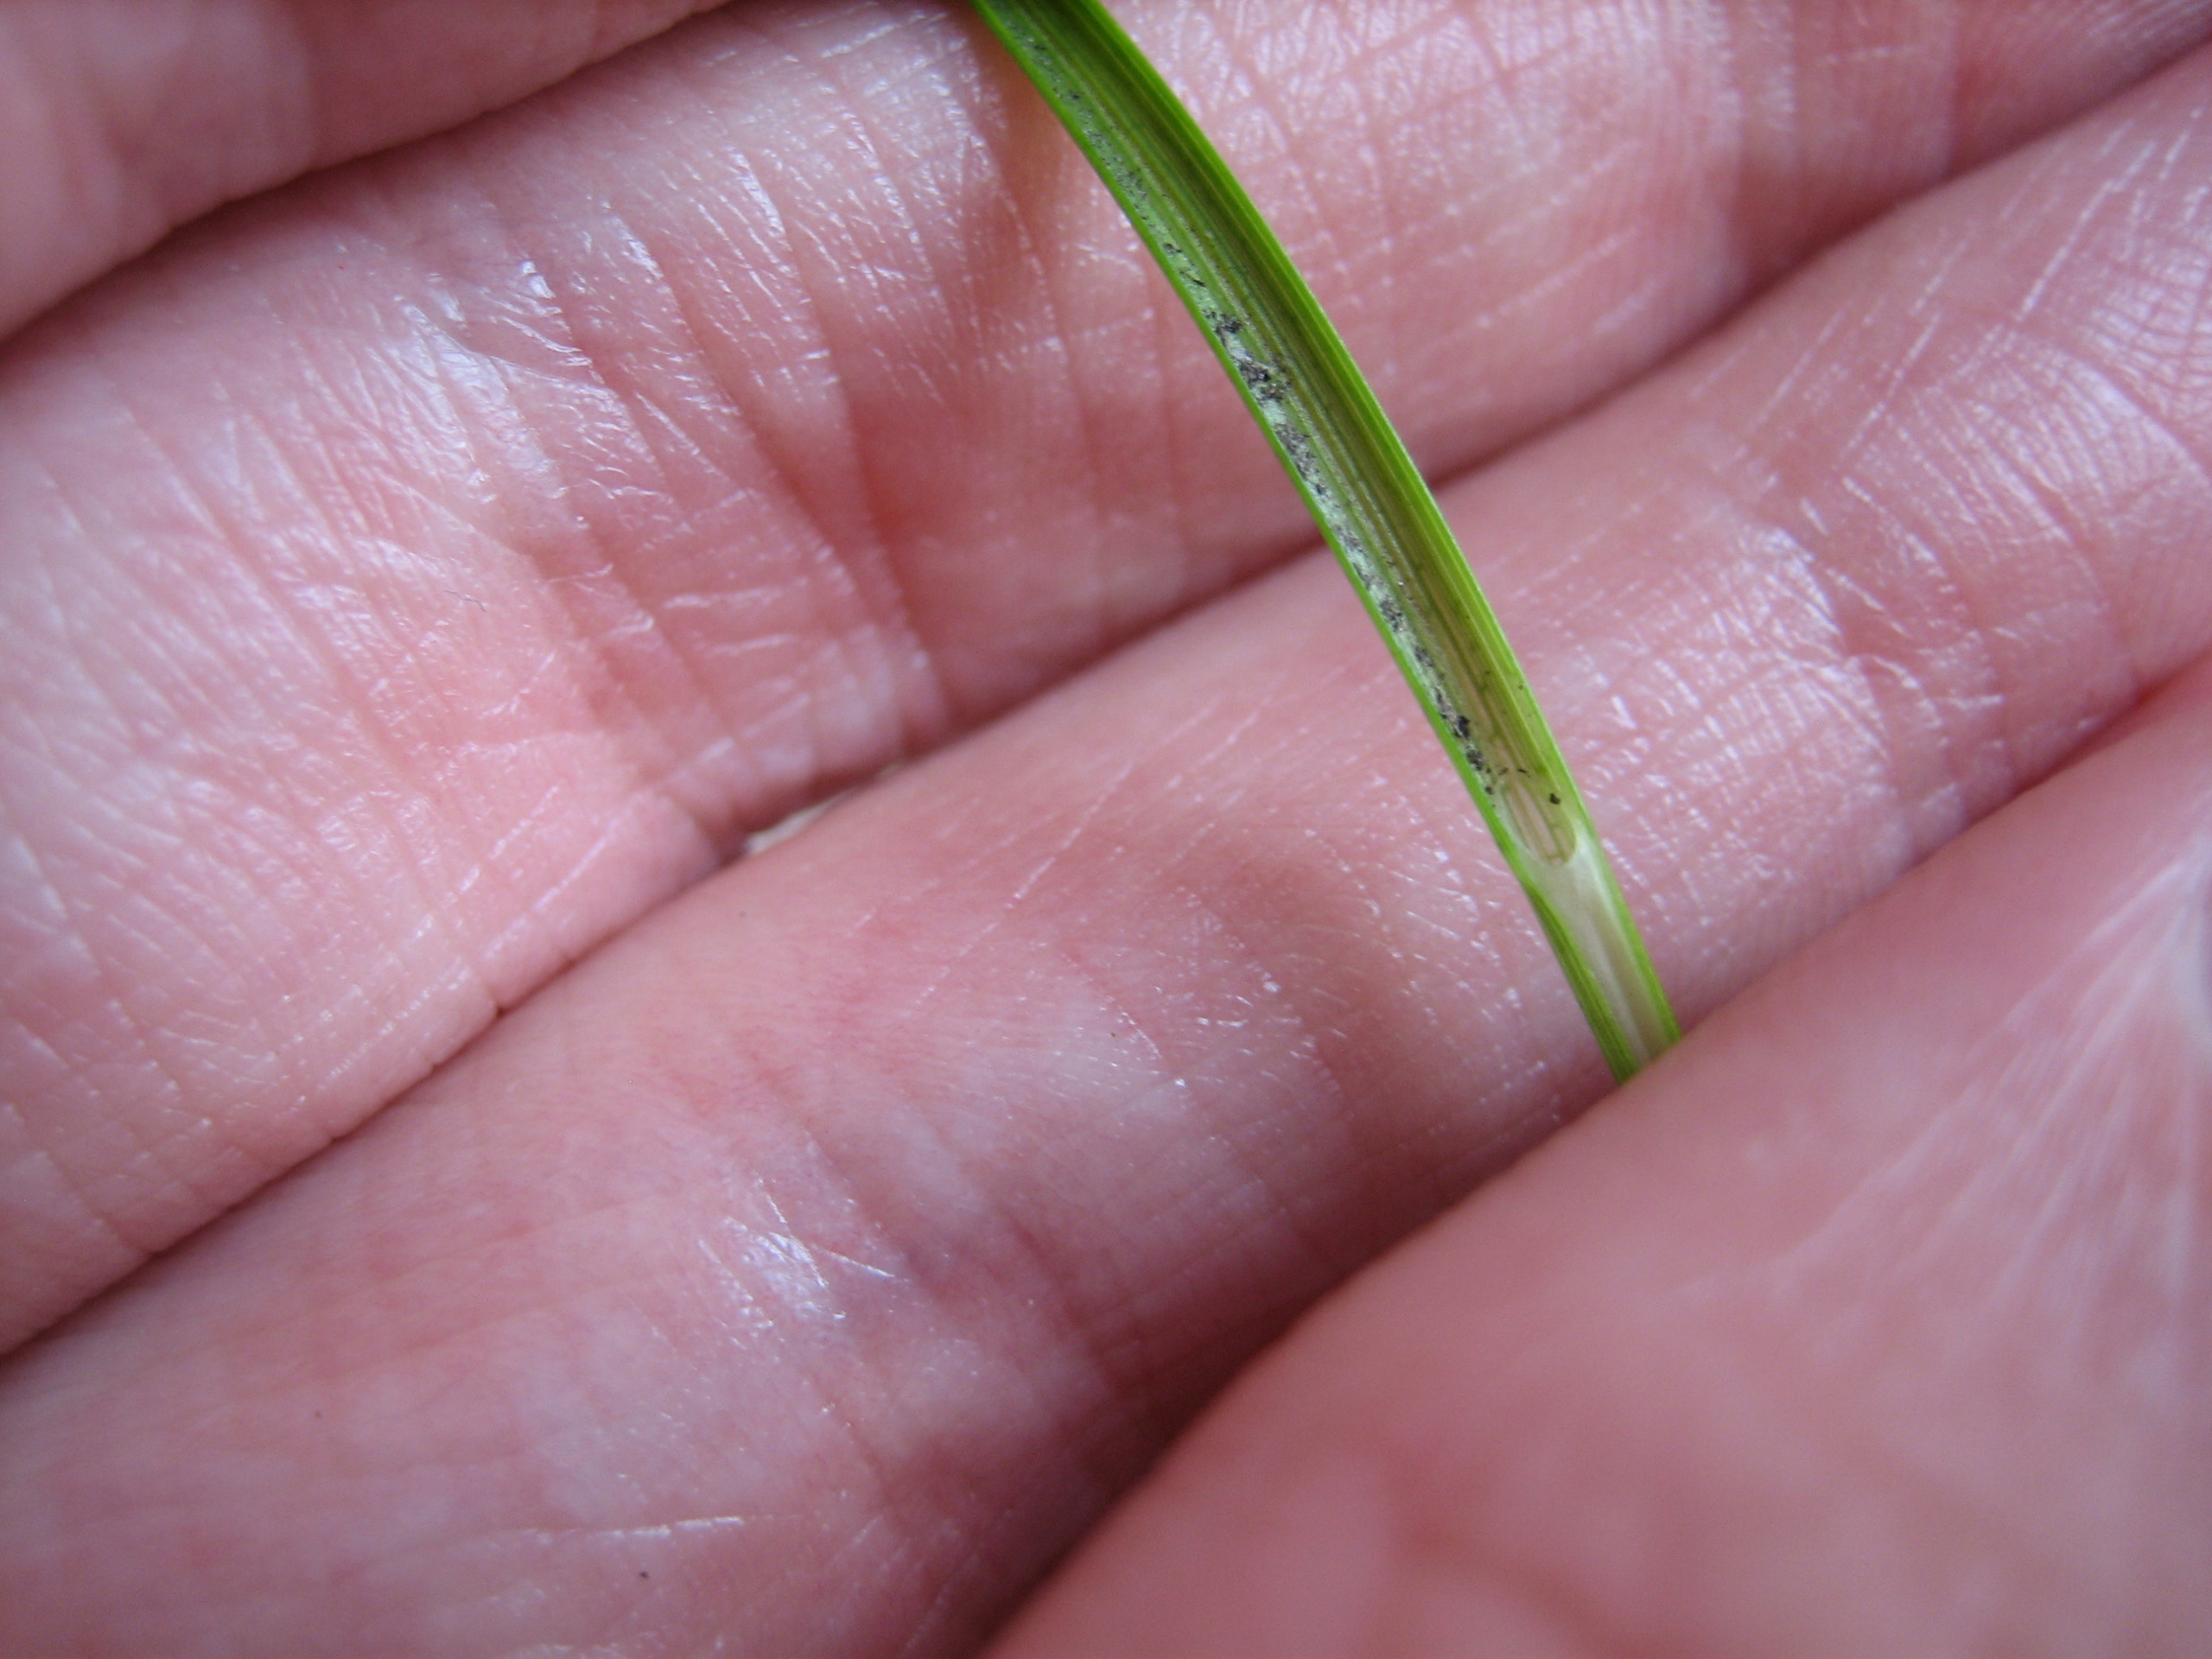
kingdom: Plantae
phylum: Tracheophyta
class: Liliopsida
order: Poales
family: Cyperaceae
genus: Carex
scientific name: Carex echinata
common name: Stjerne-star
